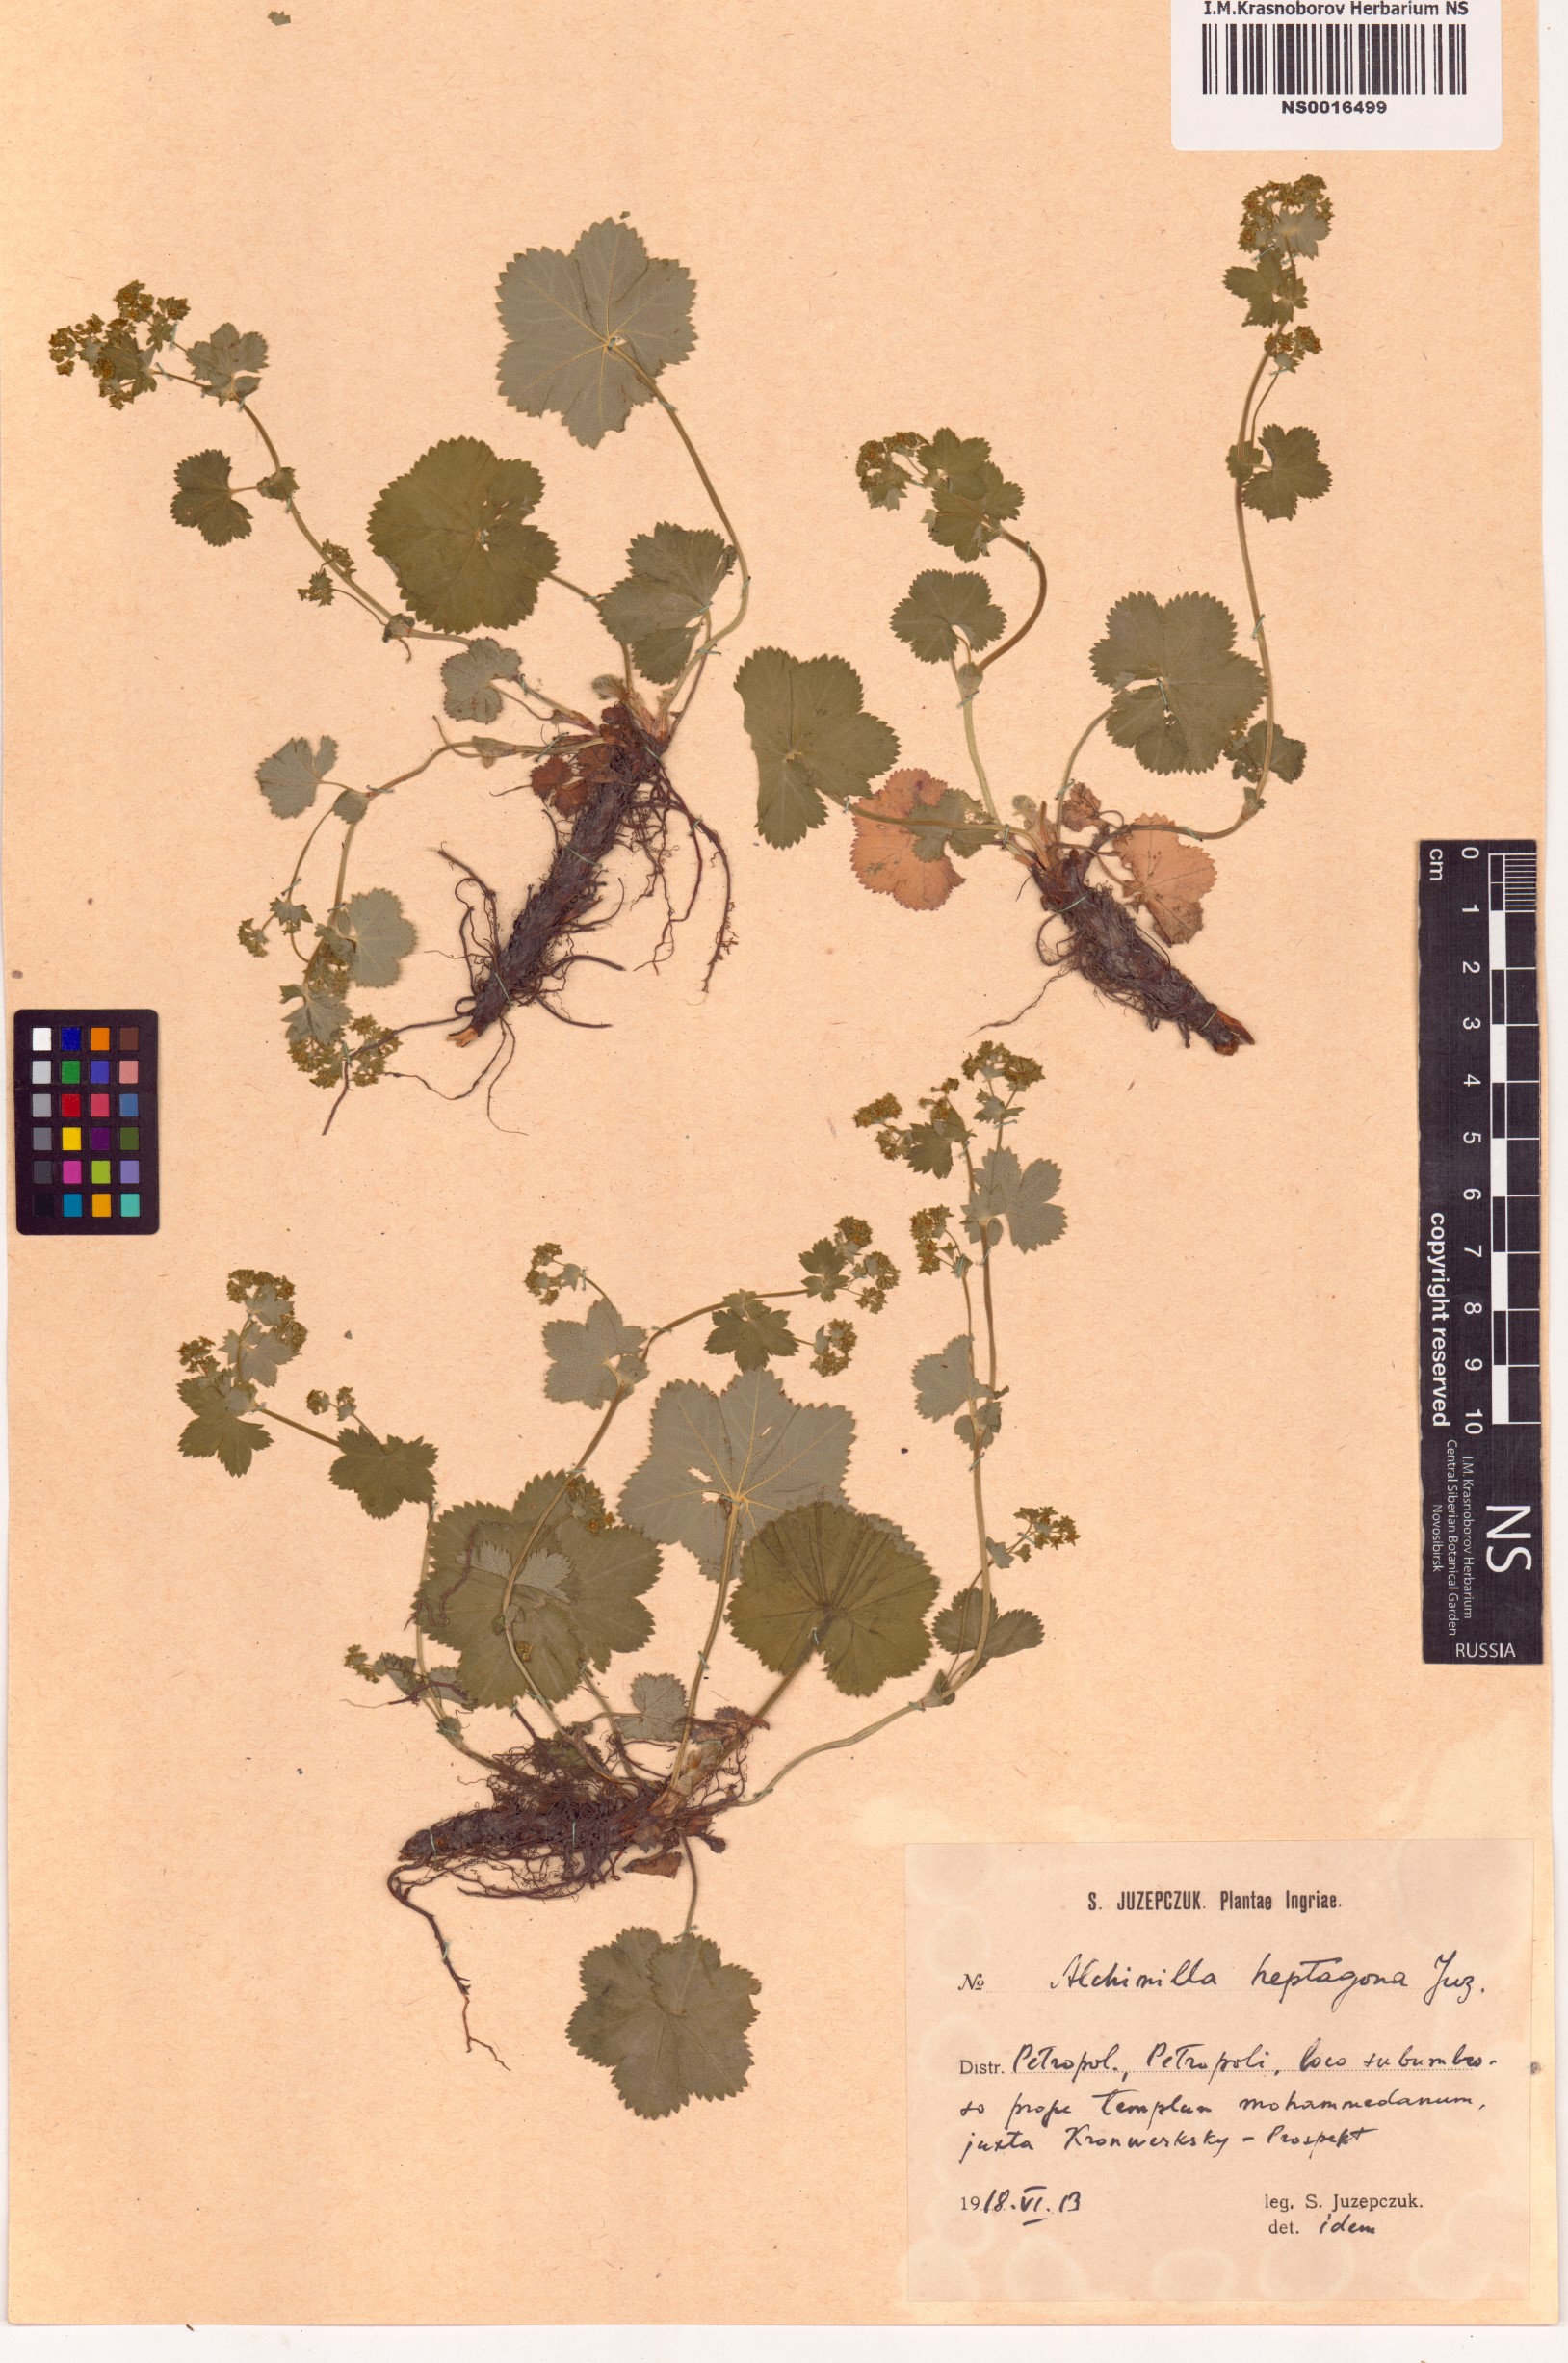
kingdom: Plantae
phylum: Tracheophyta
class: Magnoliopsida
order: Rosales
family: Rosaceae
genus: Alchemilla
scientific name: Alchemilla heptagona
